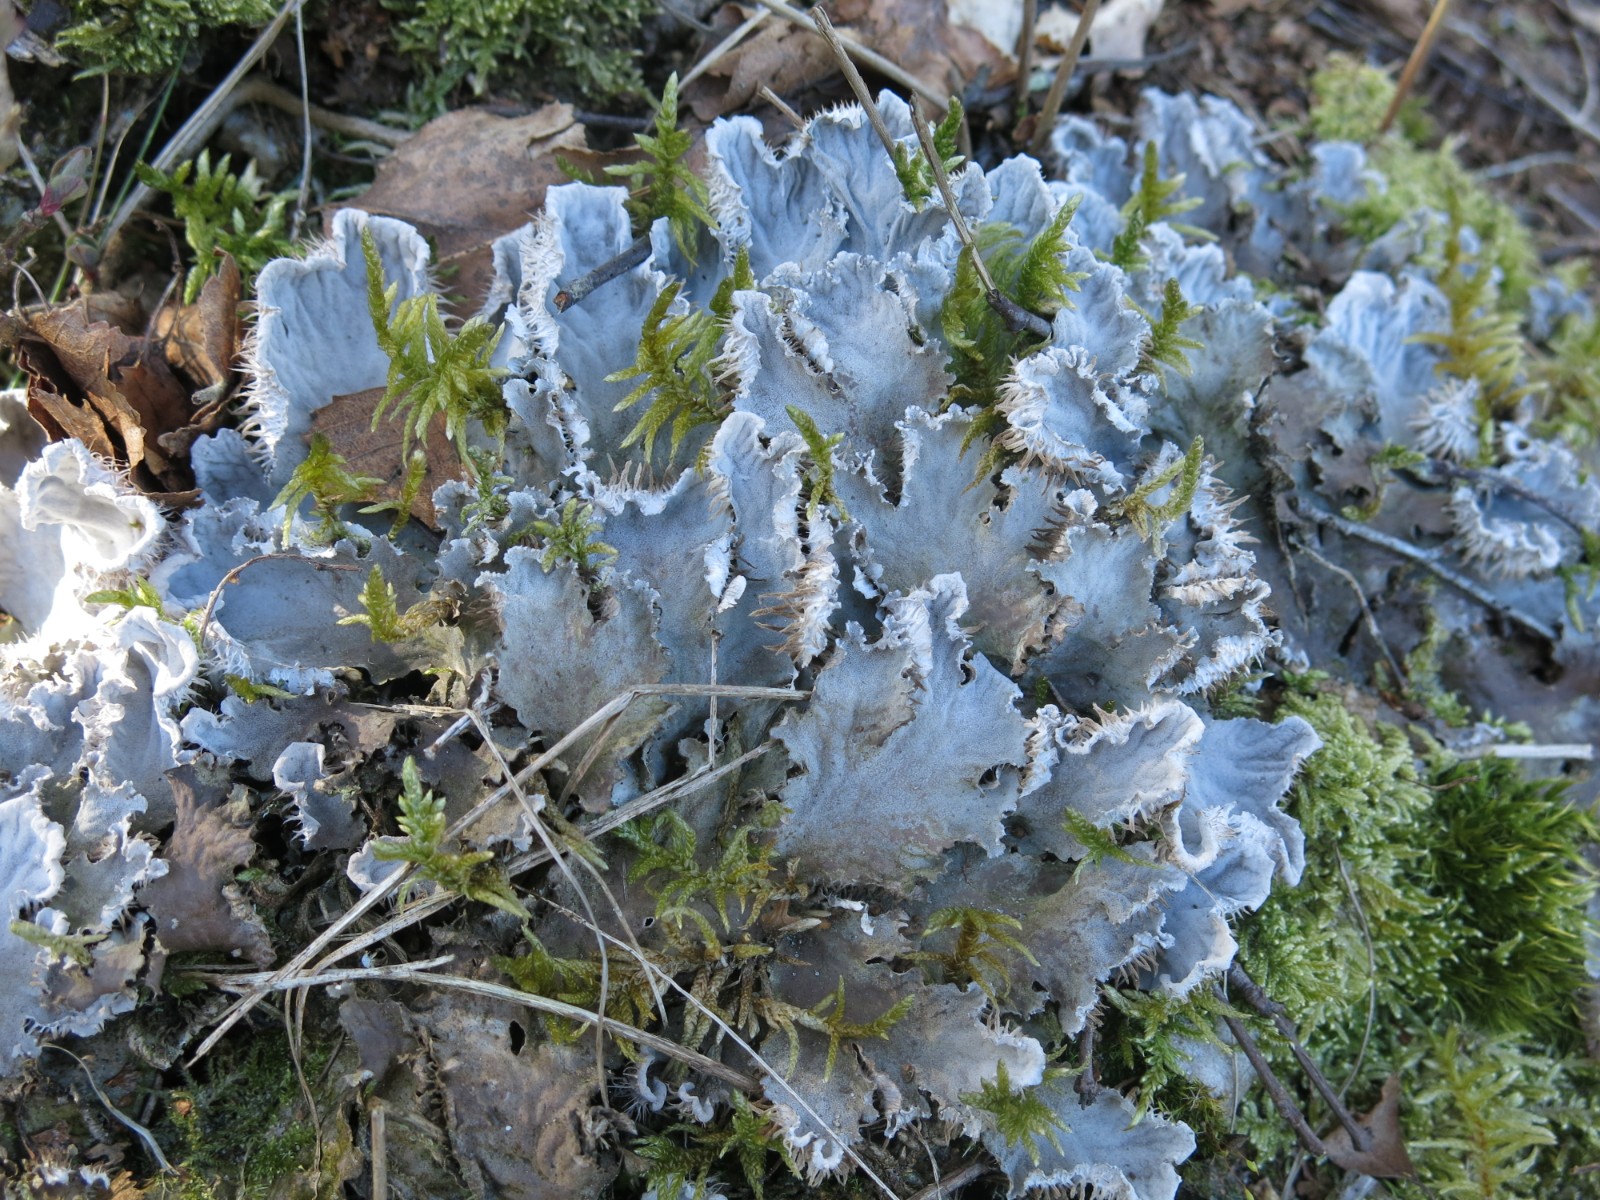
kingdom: Fungi
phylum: Ascomycota
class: Lecanoromycetes
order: Peltigerales
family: Peltigeraceae
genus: Peltigera
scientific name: Peltigera membranacea
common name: tynd skjoldlav
